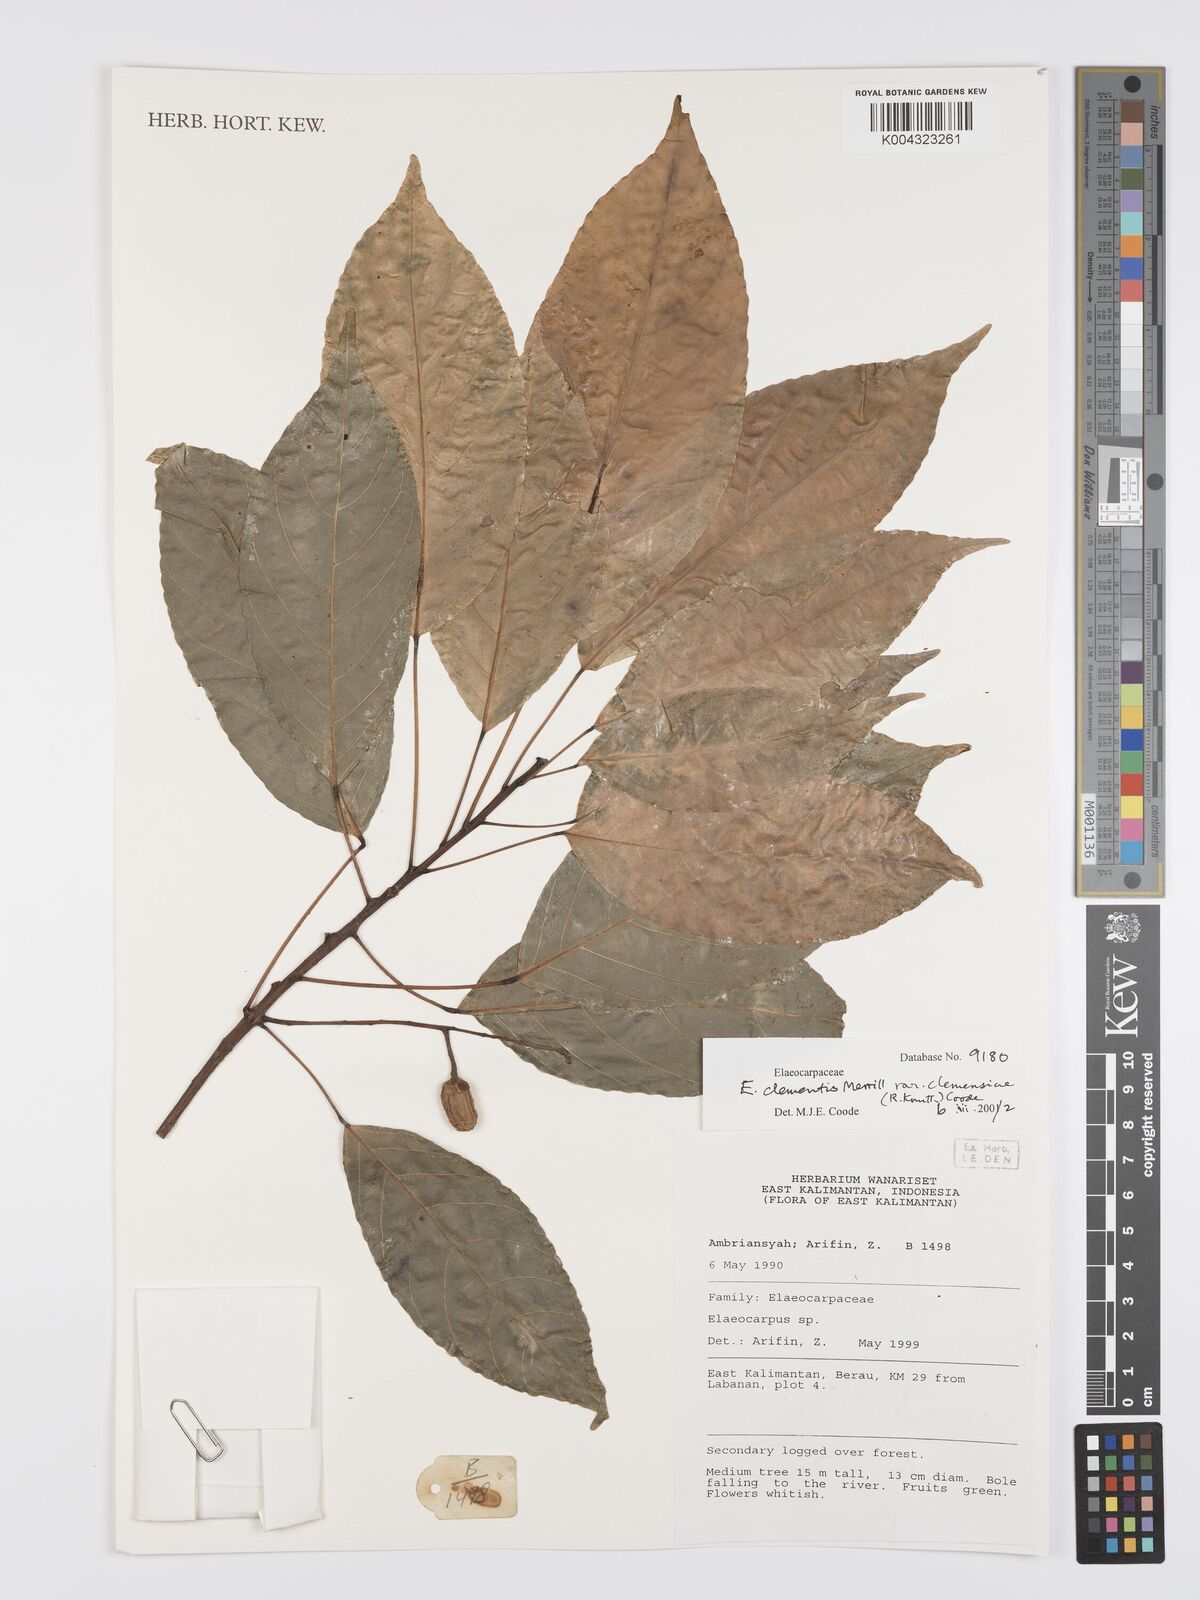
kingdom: Plantae
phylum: Tracheophyta
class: Magnoliopsida
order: Oxalidales
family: Elaeocarpaceae
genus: Elaeocarpus
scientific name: Elaeocarpus clementis
